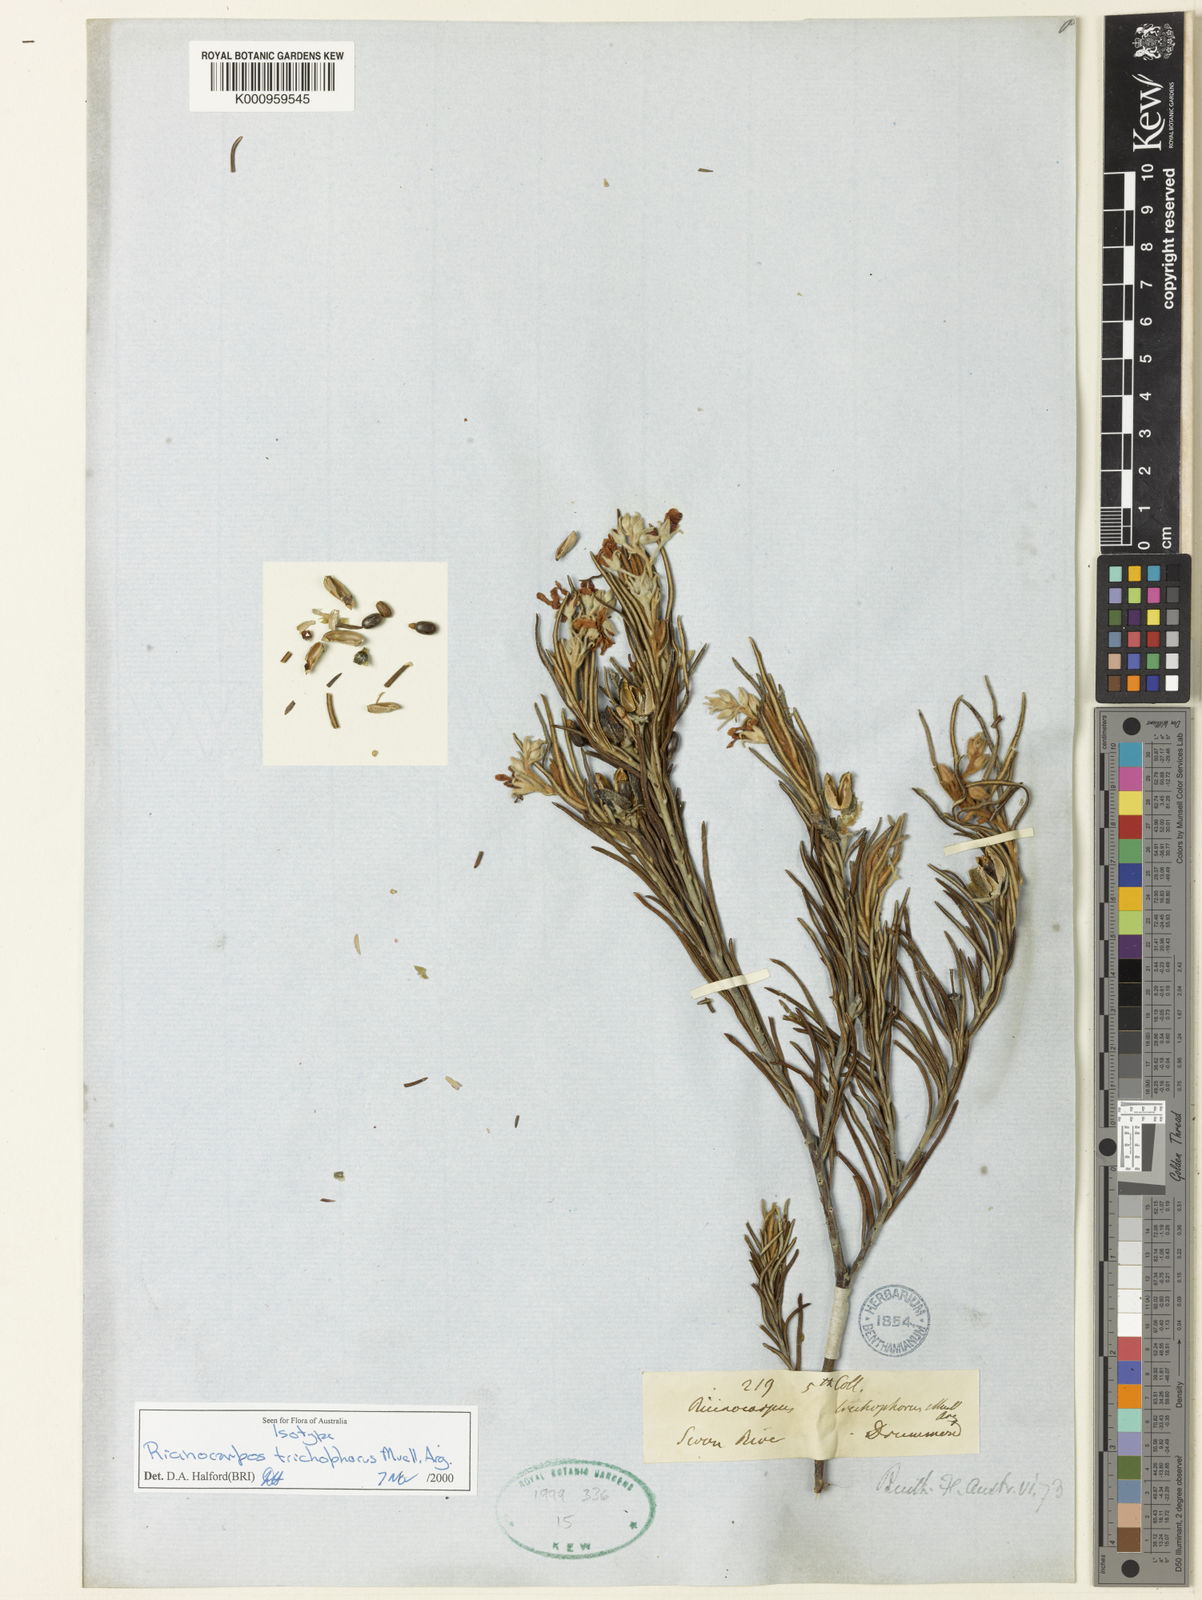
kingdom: Plantae
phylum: Tracheophyta
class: Magnoliopsida
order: Malpighiales
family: Euphorbiaceae
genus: Ricinocarpos
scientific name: Ricinocarpos
